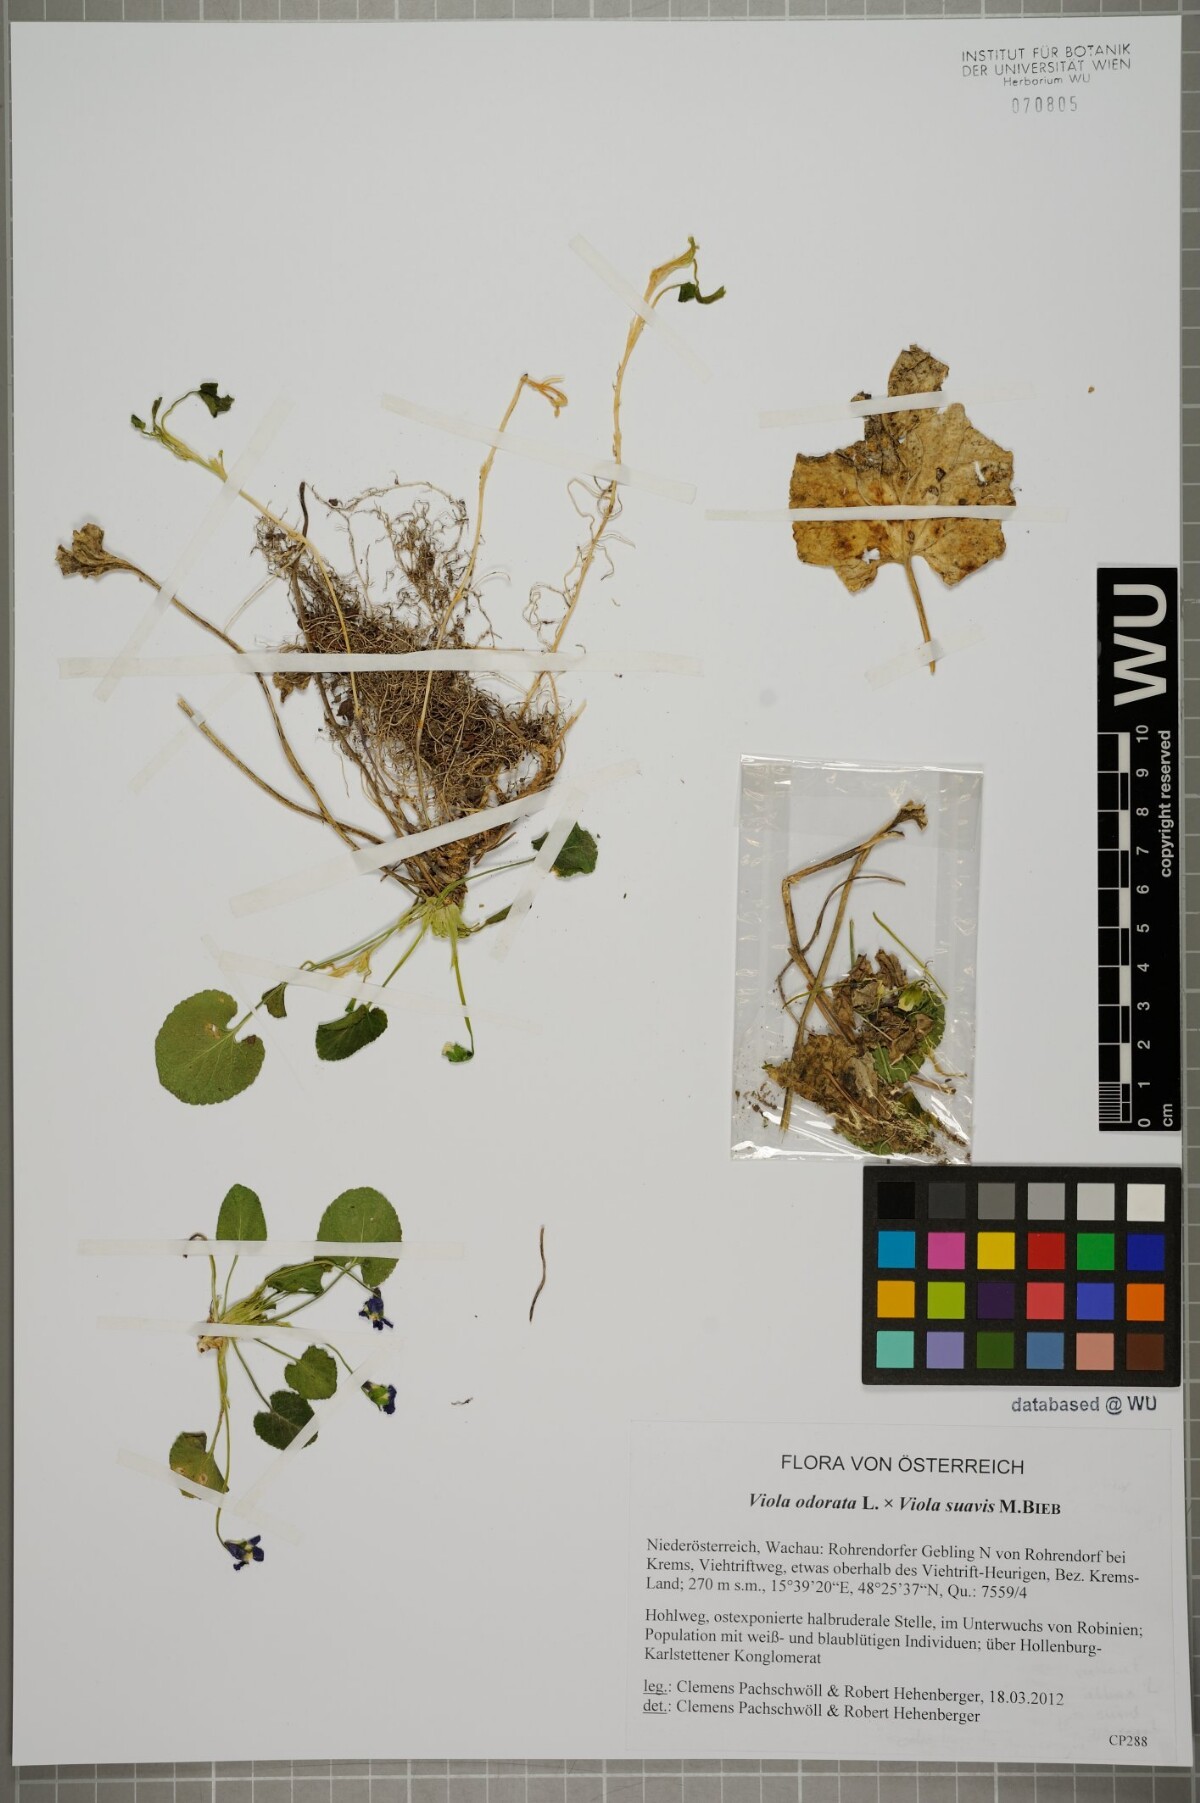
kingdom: Plantae
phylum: Tracheophyta
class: Magnoliopsida
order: Malpighiales
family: Violaceae
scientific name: Violaceae
